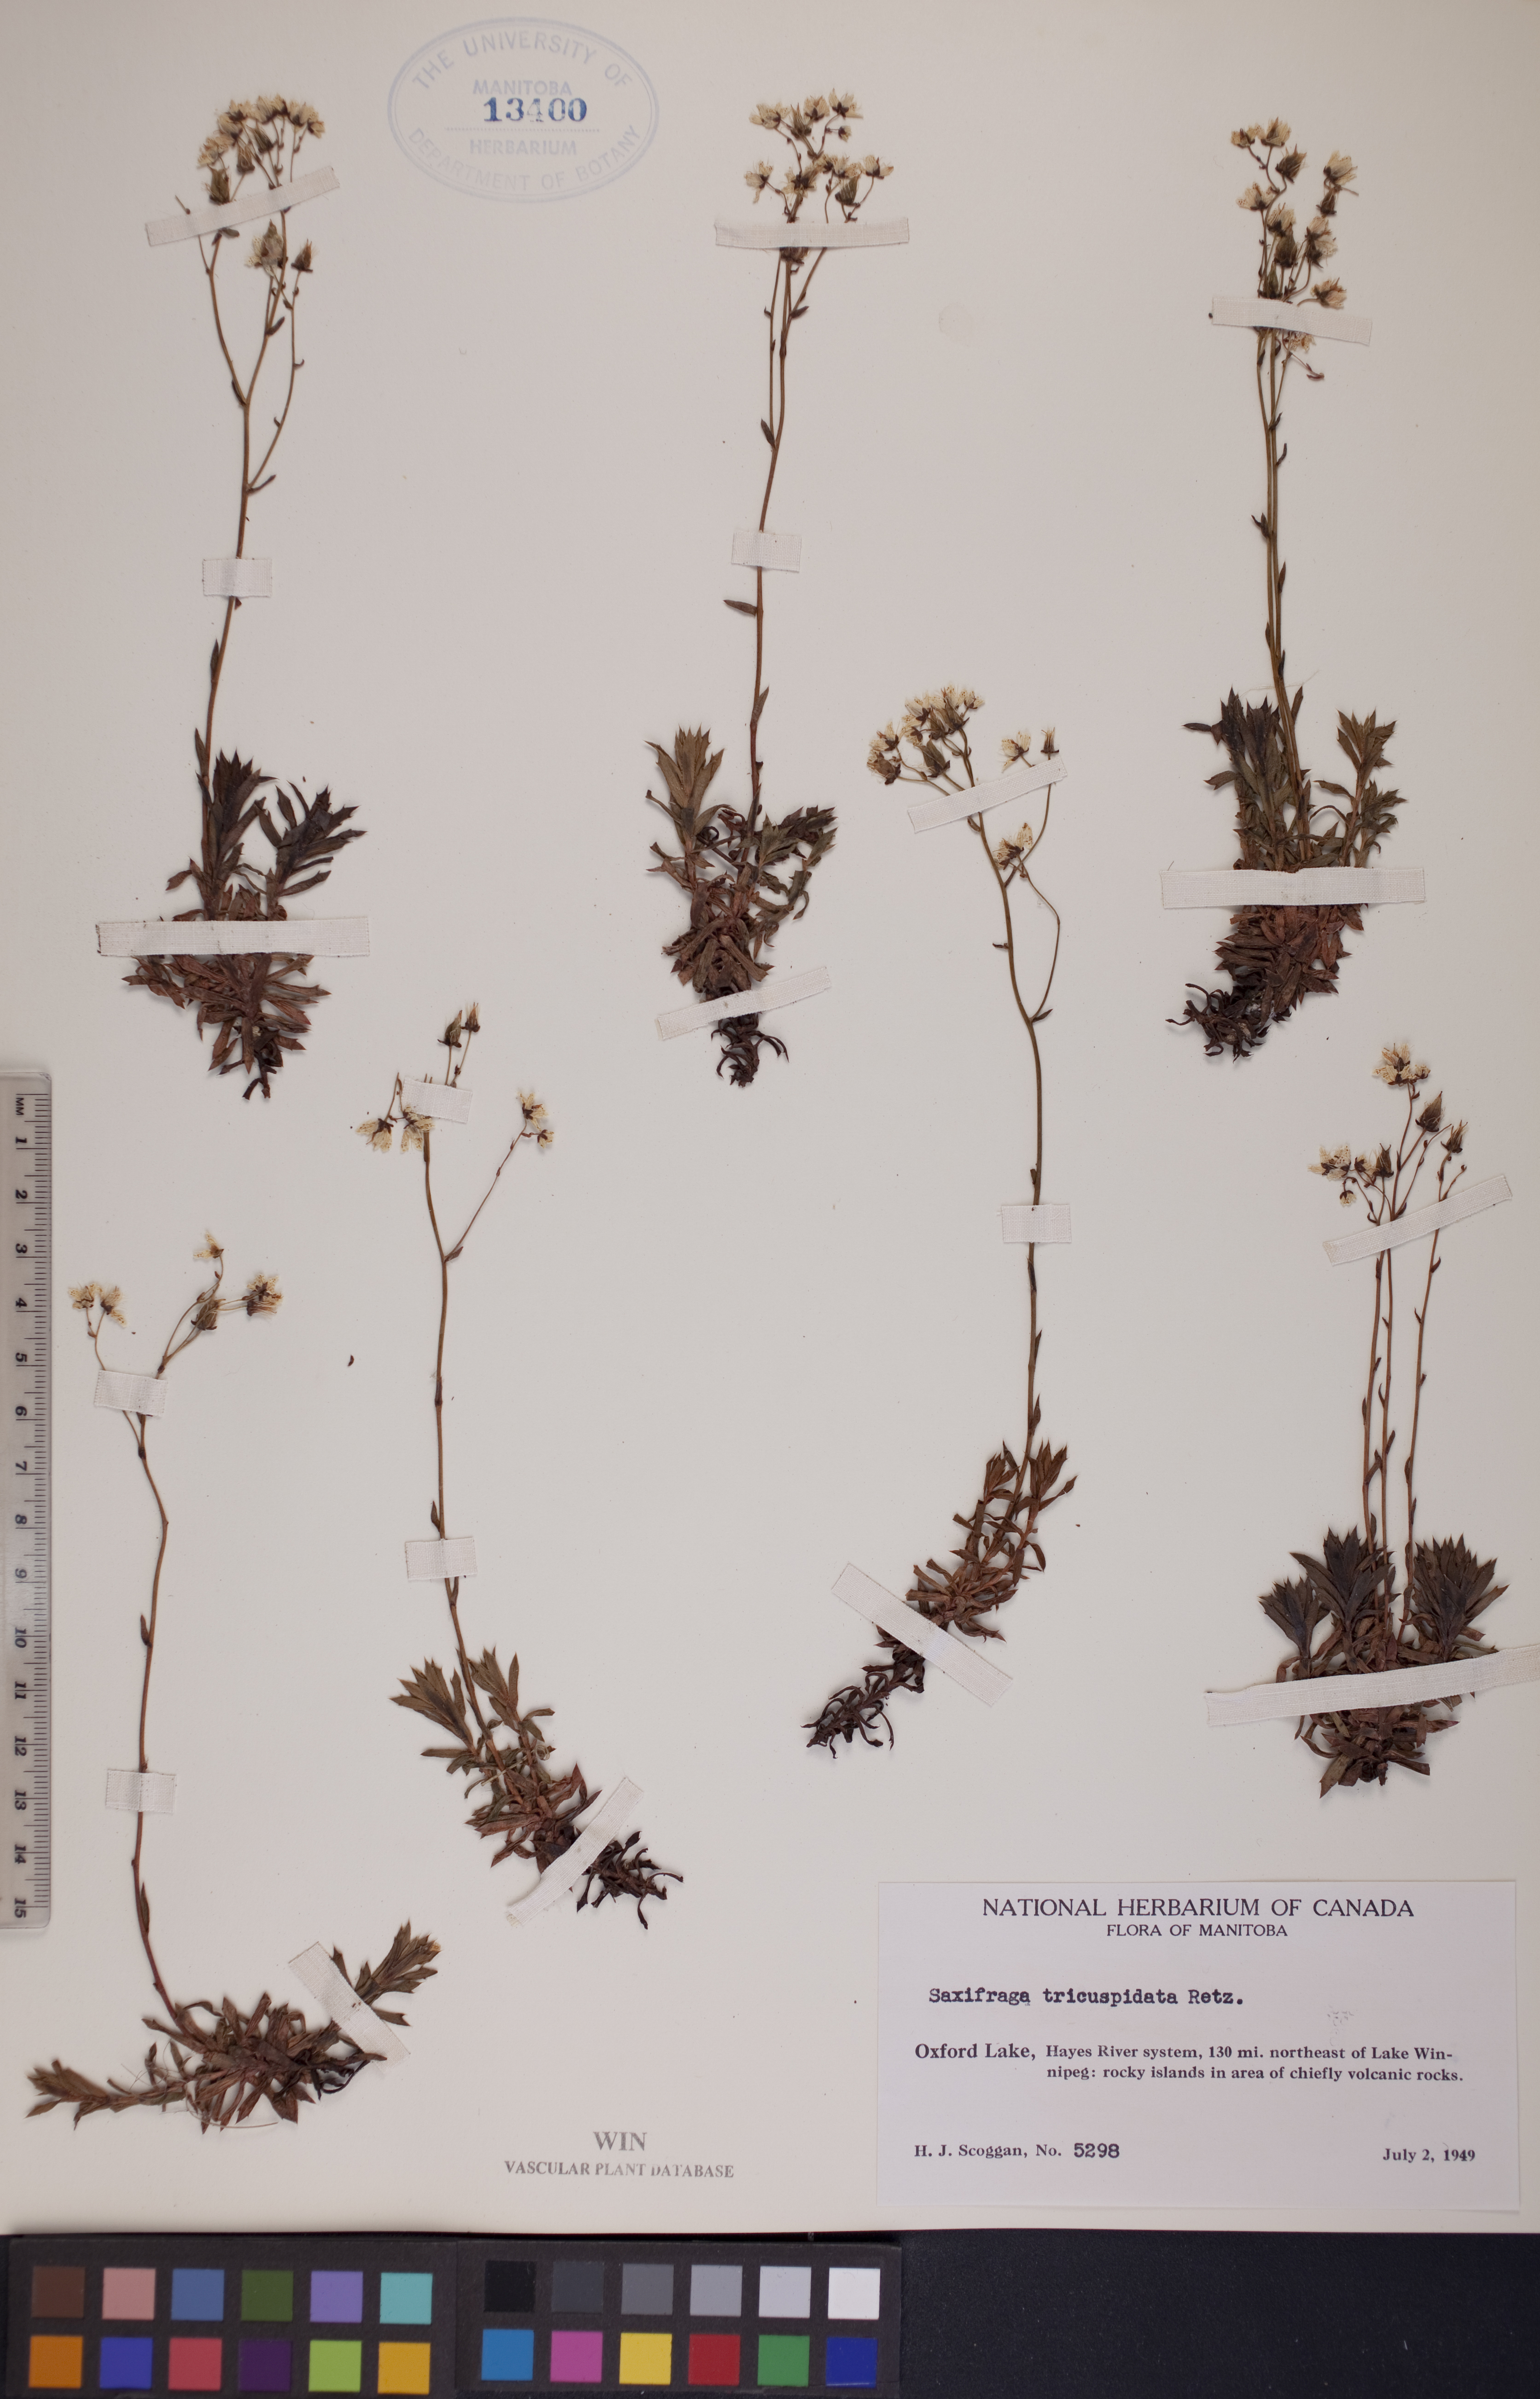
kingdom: Plantae
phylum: Tracheophyta
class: Magnoliopsida
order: Saxifragales
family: Saxifragaceae
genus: Saxifraga
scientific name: Saxifraga tricuspidata
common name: Prickly saxifrage
